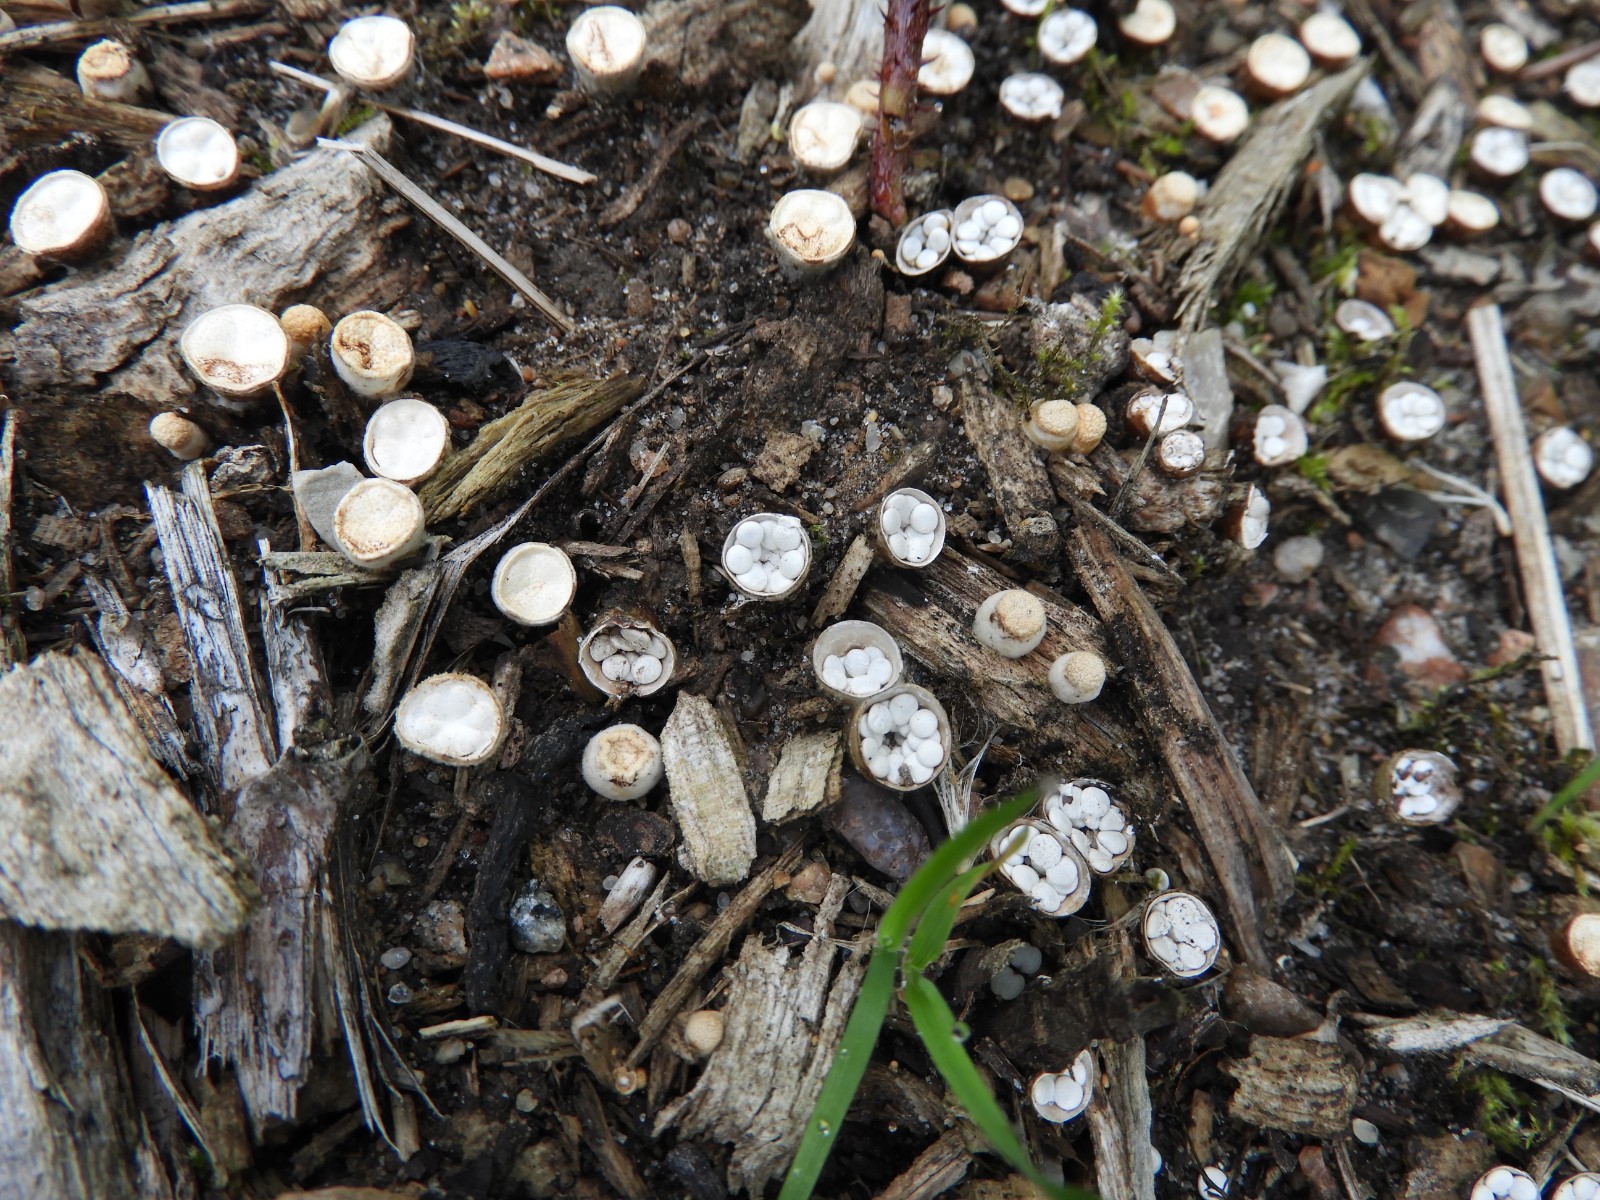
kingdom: Fungi
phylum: Basidiomycota
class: Agaricomycetes
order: Agaricales
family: Nidulariaceae
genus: Crucibulum
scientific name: Crucibulum crucibuliforme
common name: krukkesvamp
